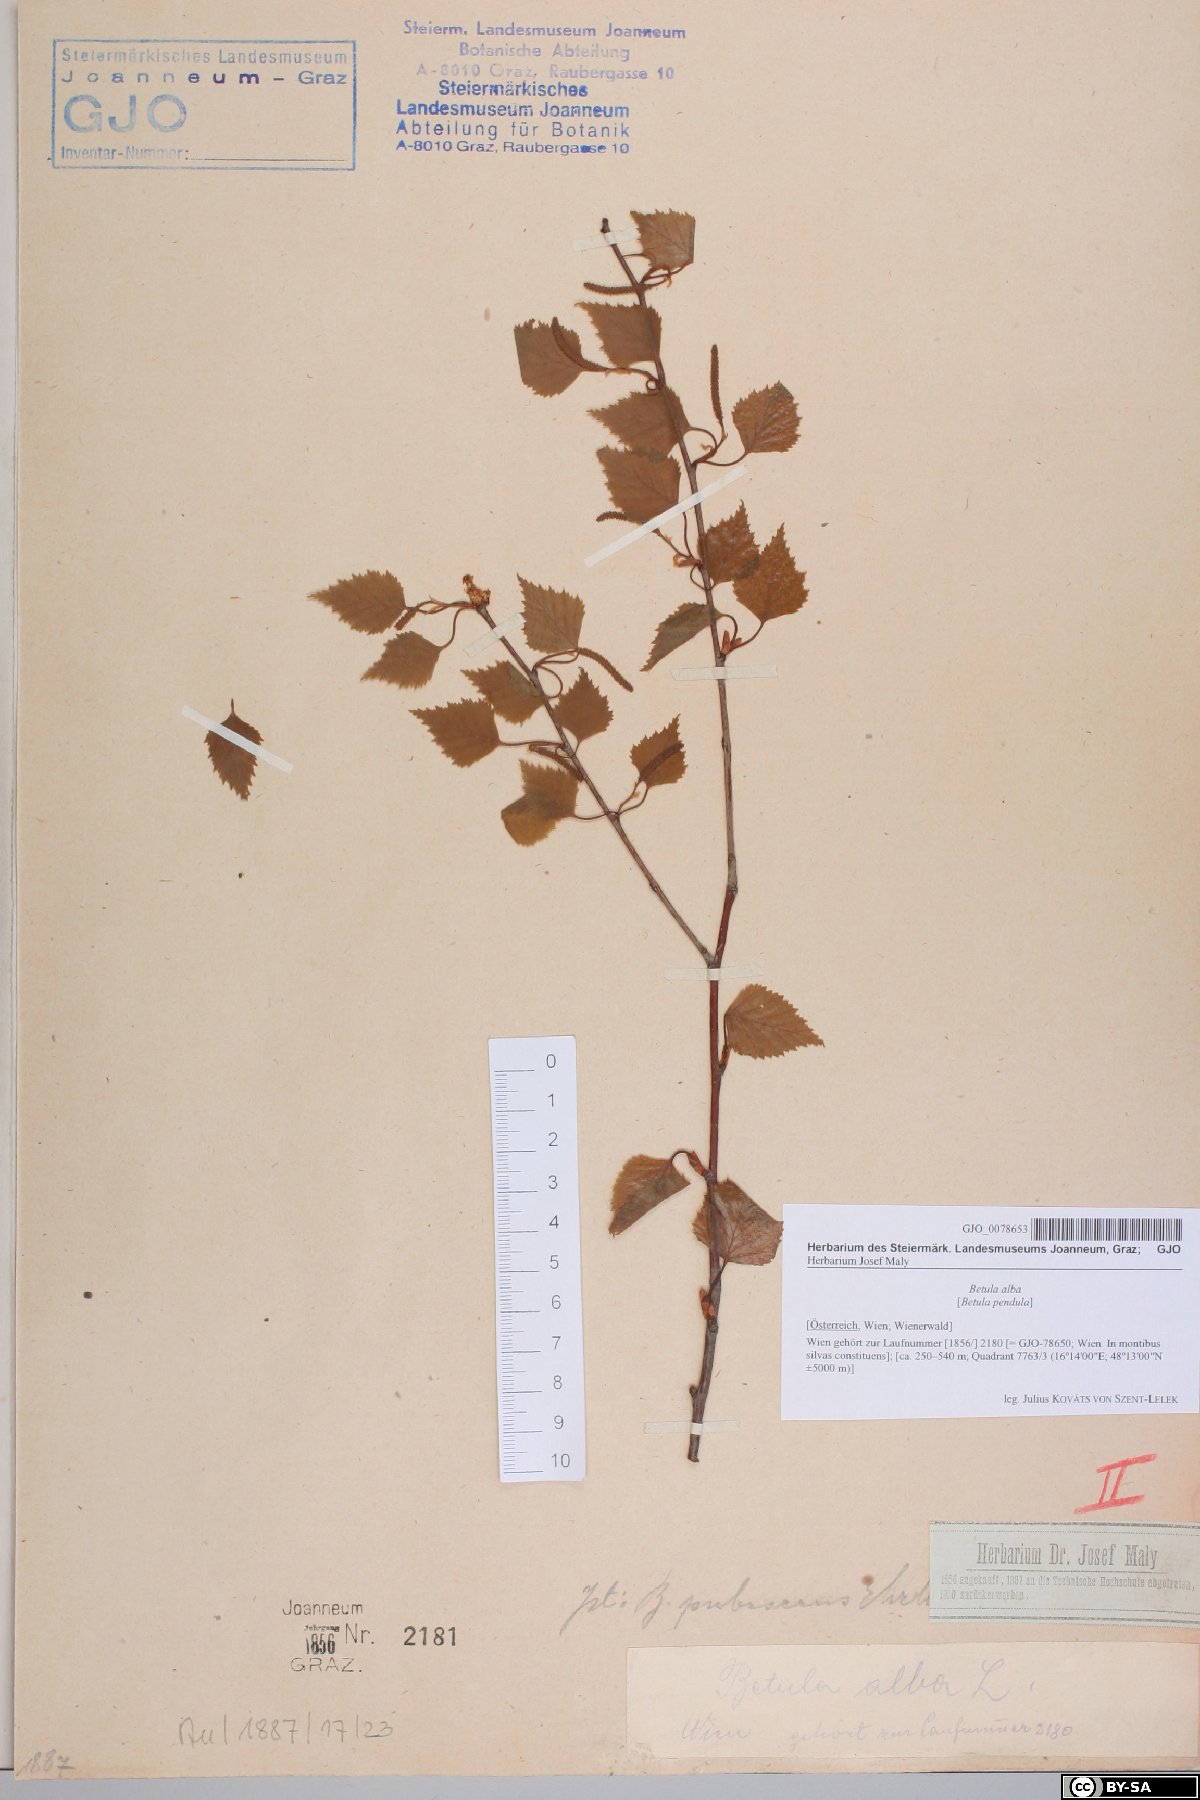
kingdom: Plantae
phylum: Tracheophyta
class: Magnoliopsida
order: Fagales
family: Betulaceae
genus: Betula
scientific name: Betula pubescens
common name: Downy birch
